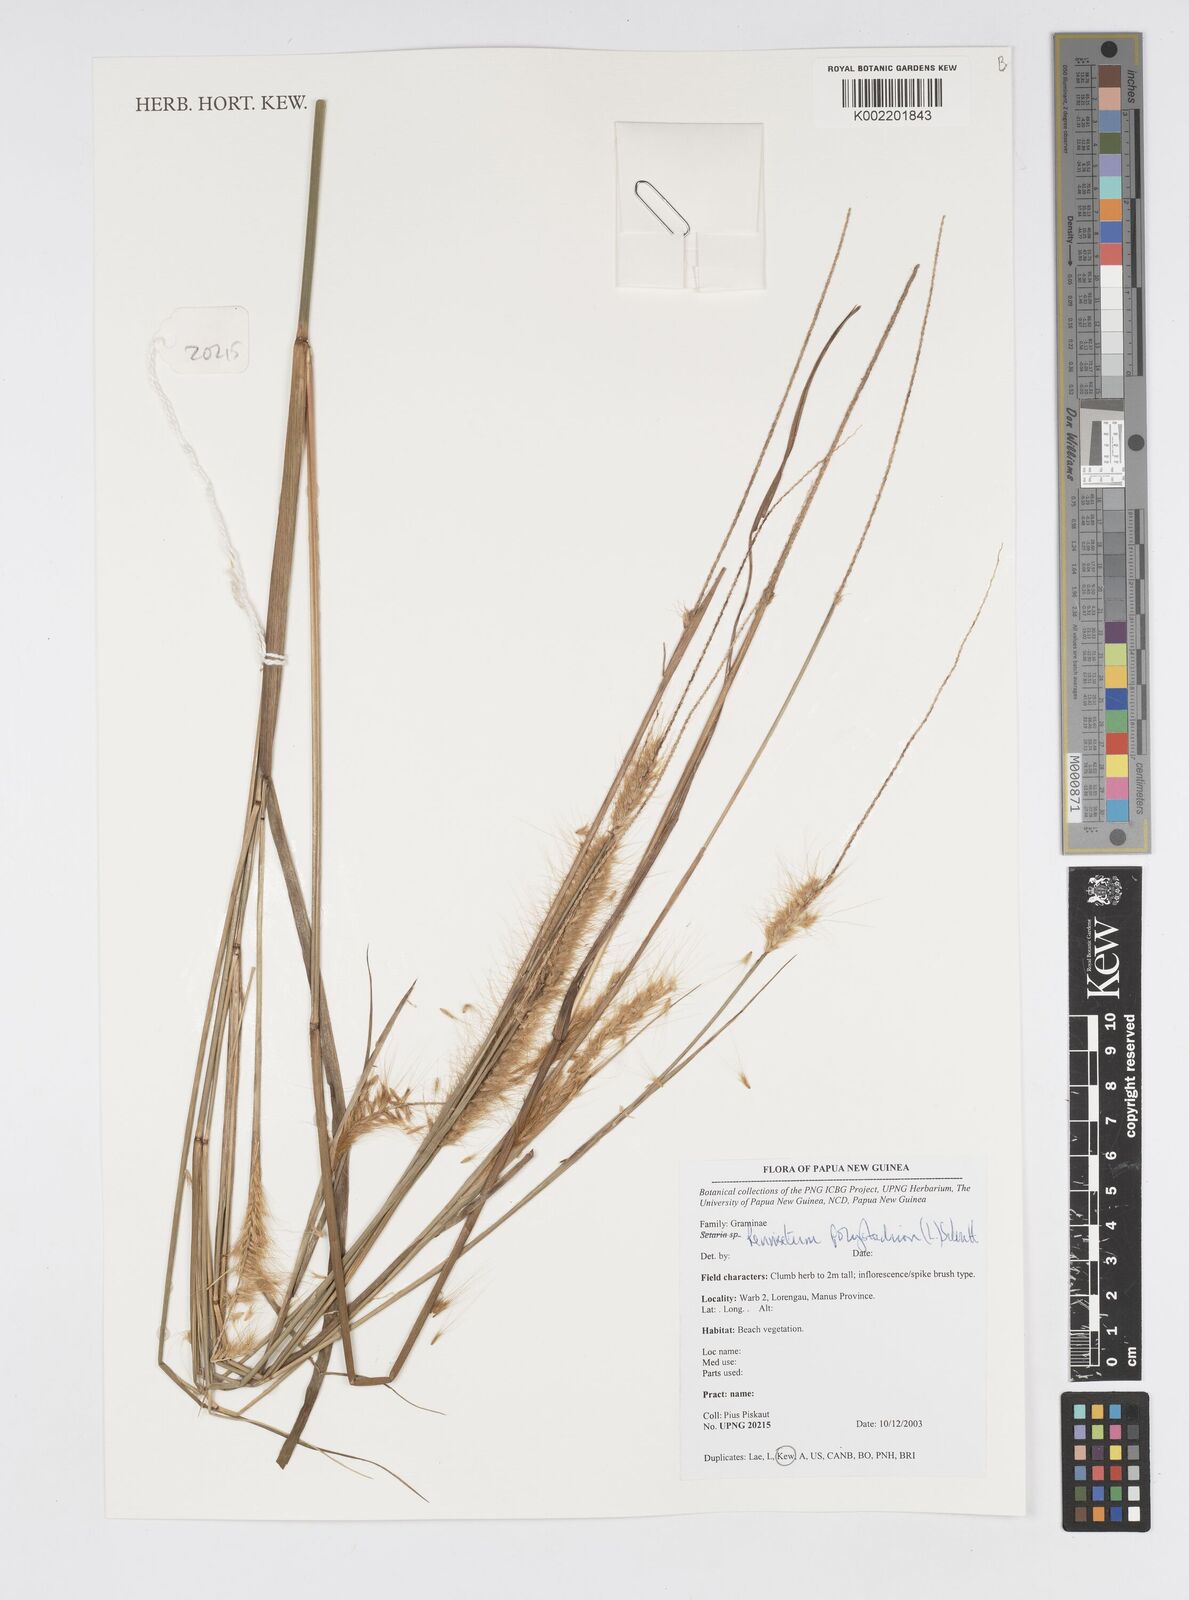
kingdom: Plantae
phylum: Tracheophyta
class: Liliopsida
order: Poales
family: Poaceae
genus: Setaria
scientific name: Setaria parviflora
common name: Knotroot bristle-grass
